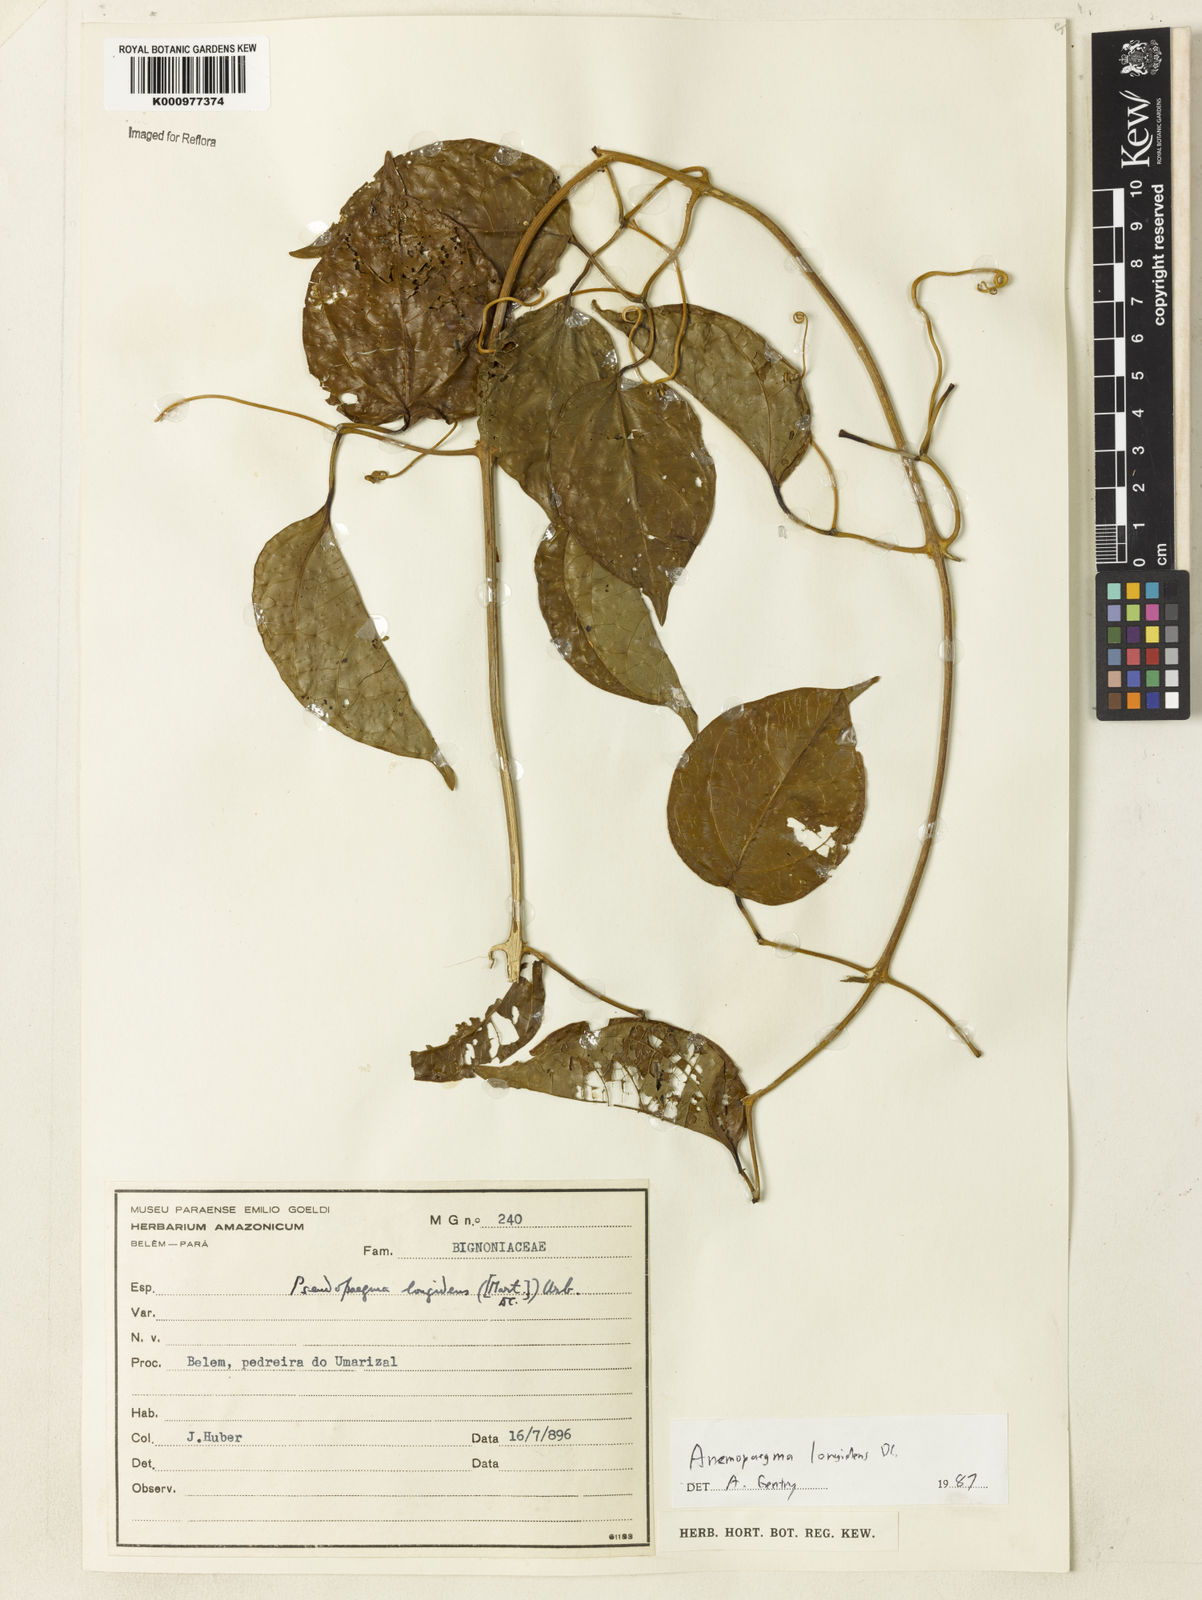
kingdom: Plantae
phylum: Tracheophyta
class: Magnoliopsida
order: Lamiales
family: Bignoniaceae
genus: Anemopaegma
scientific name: Anemopaegma longidens
